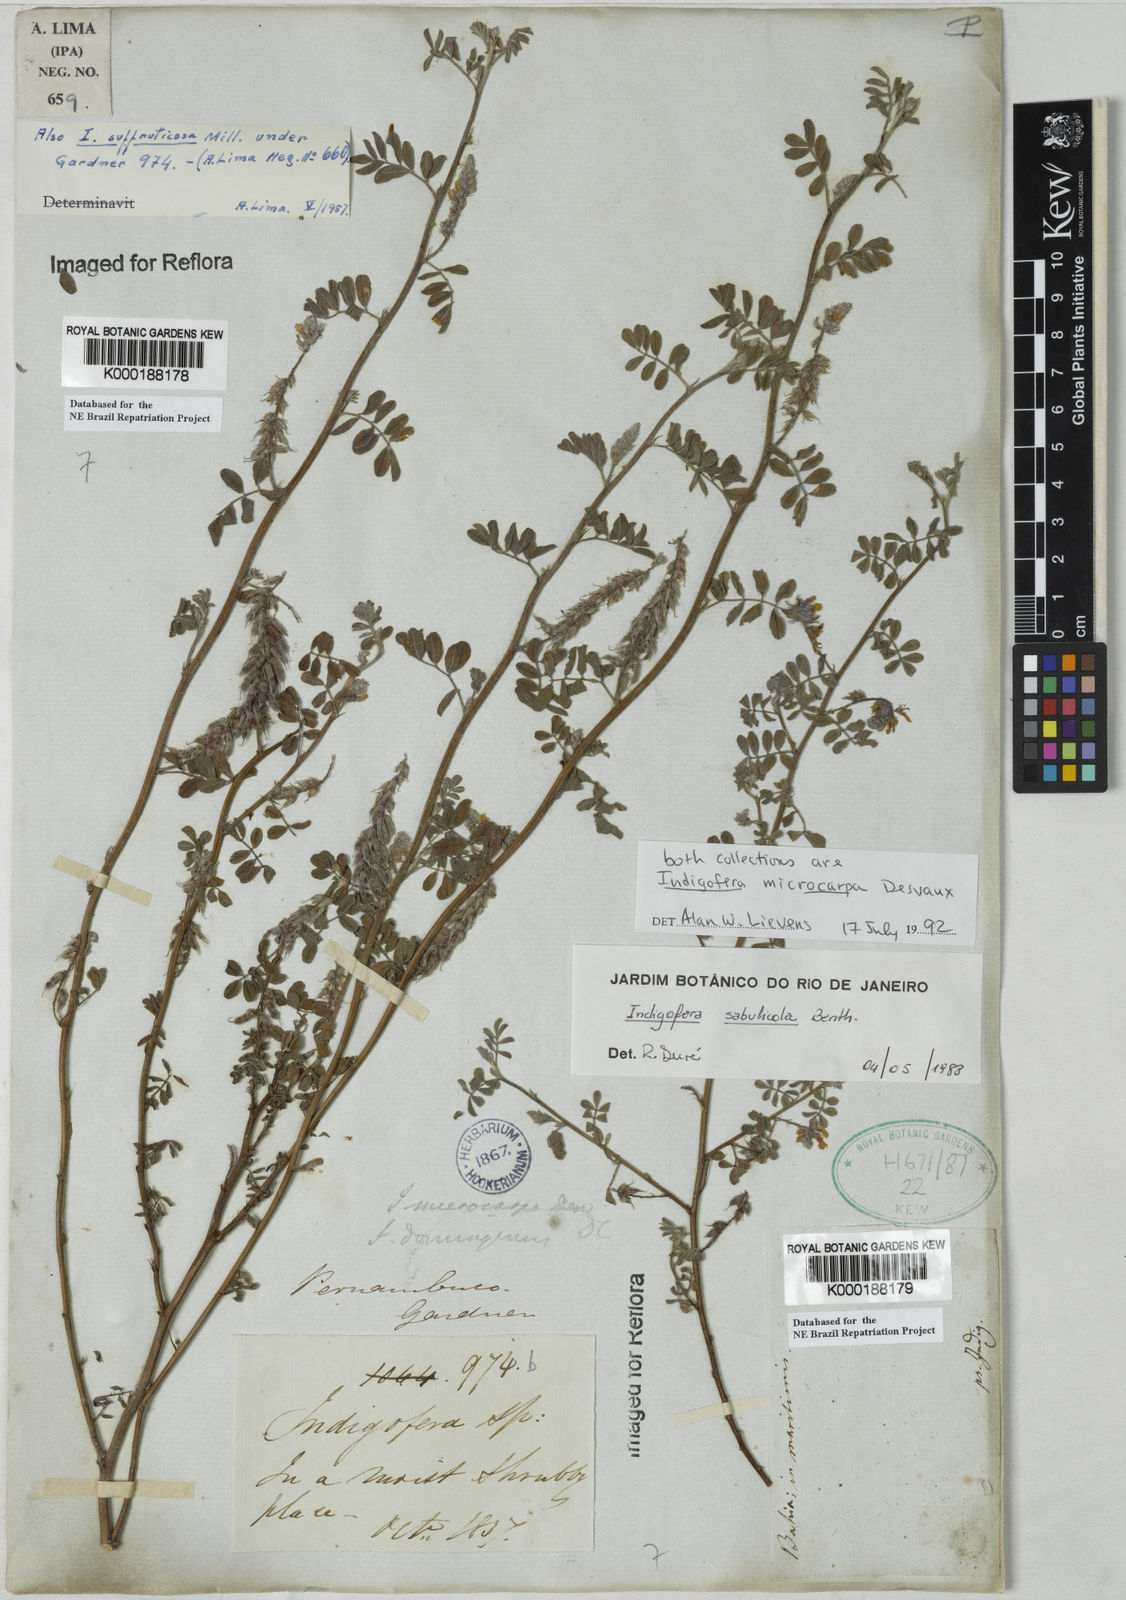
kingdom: Plantae
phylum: Tracheophyta
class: Magnoliopsida
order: Fabales
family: Fabaceae
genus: Indigofera
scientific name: Indigofera microcarpa
